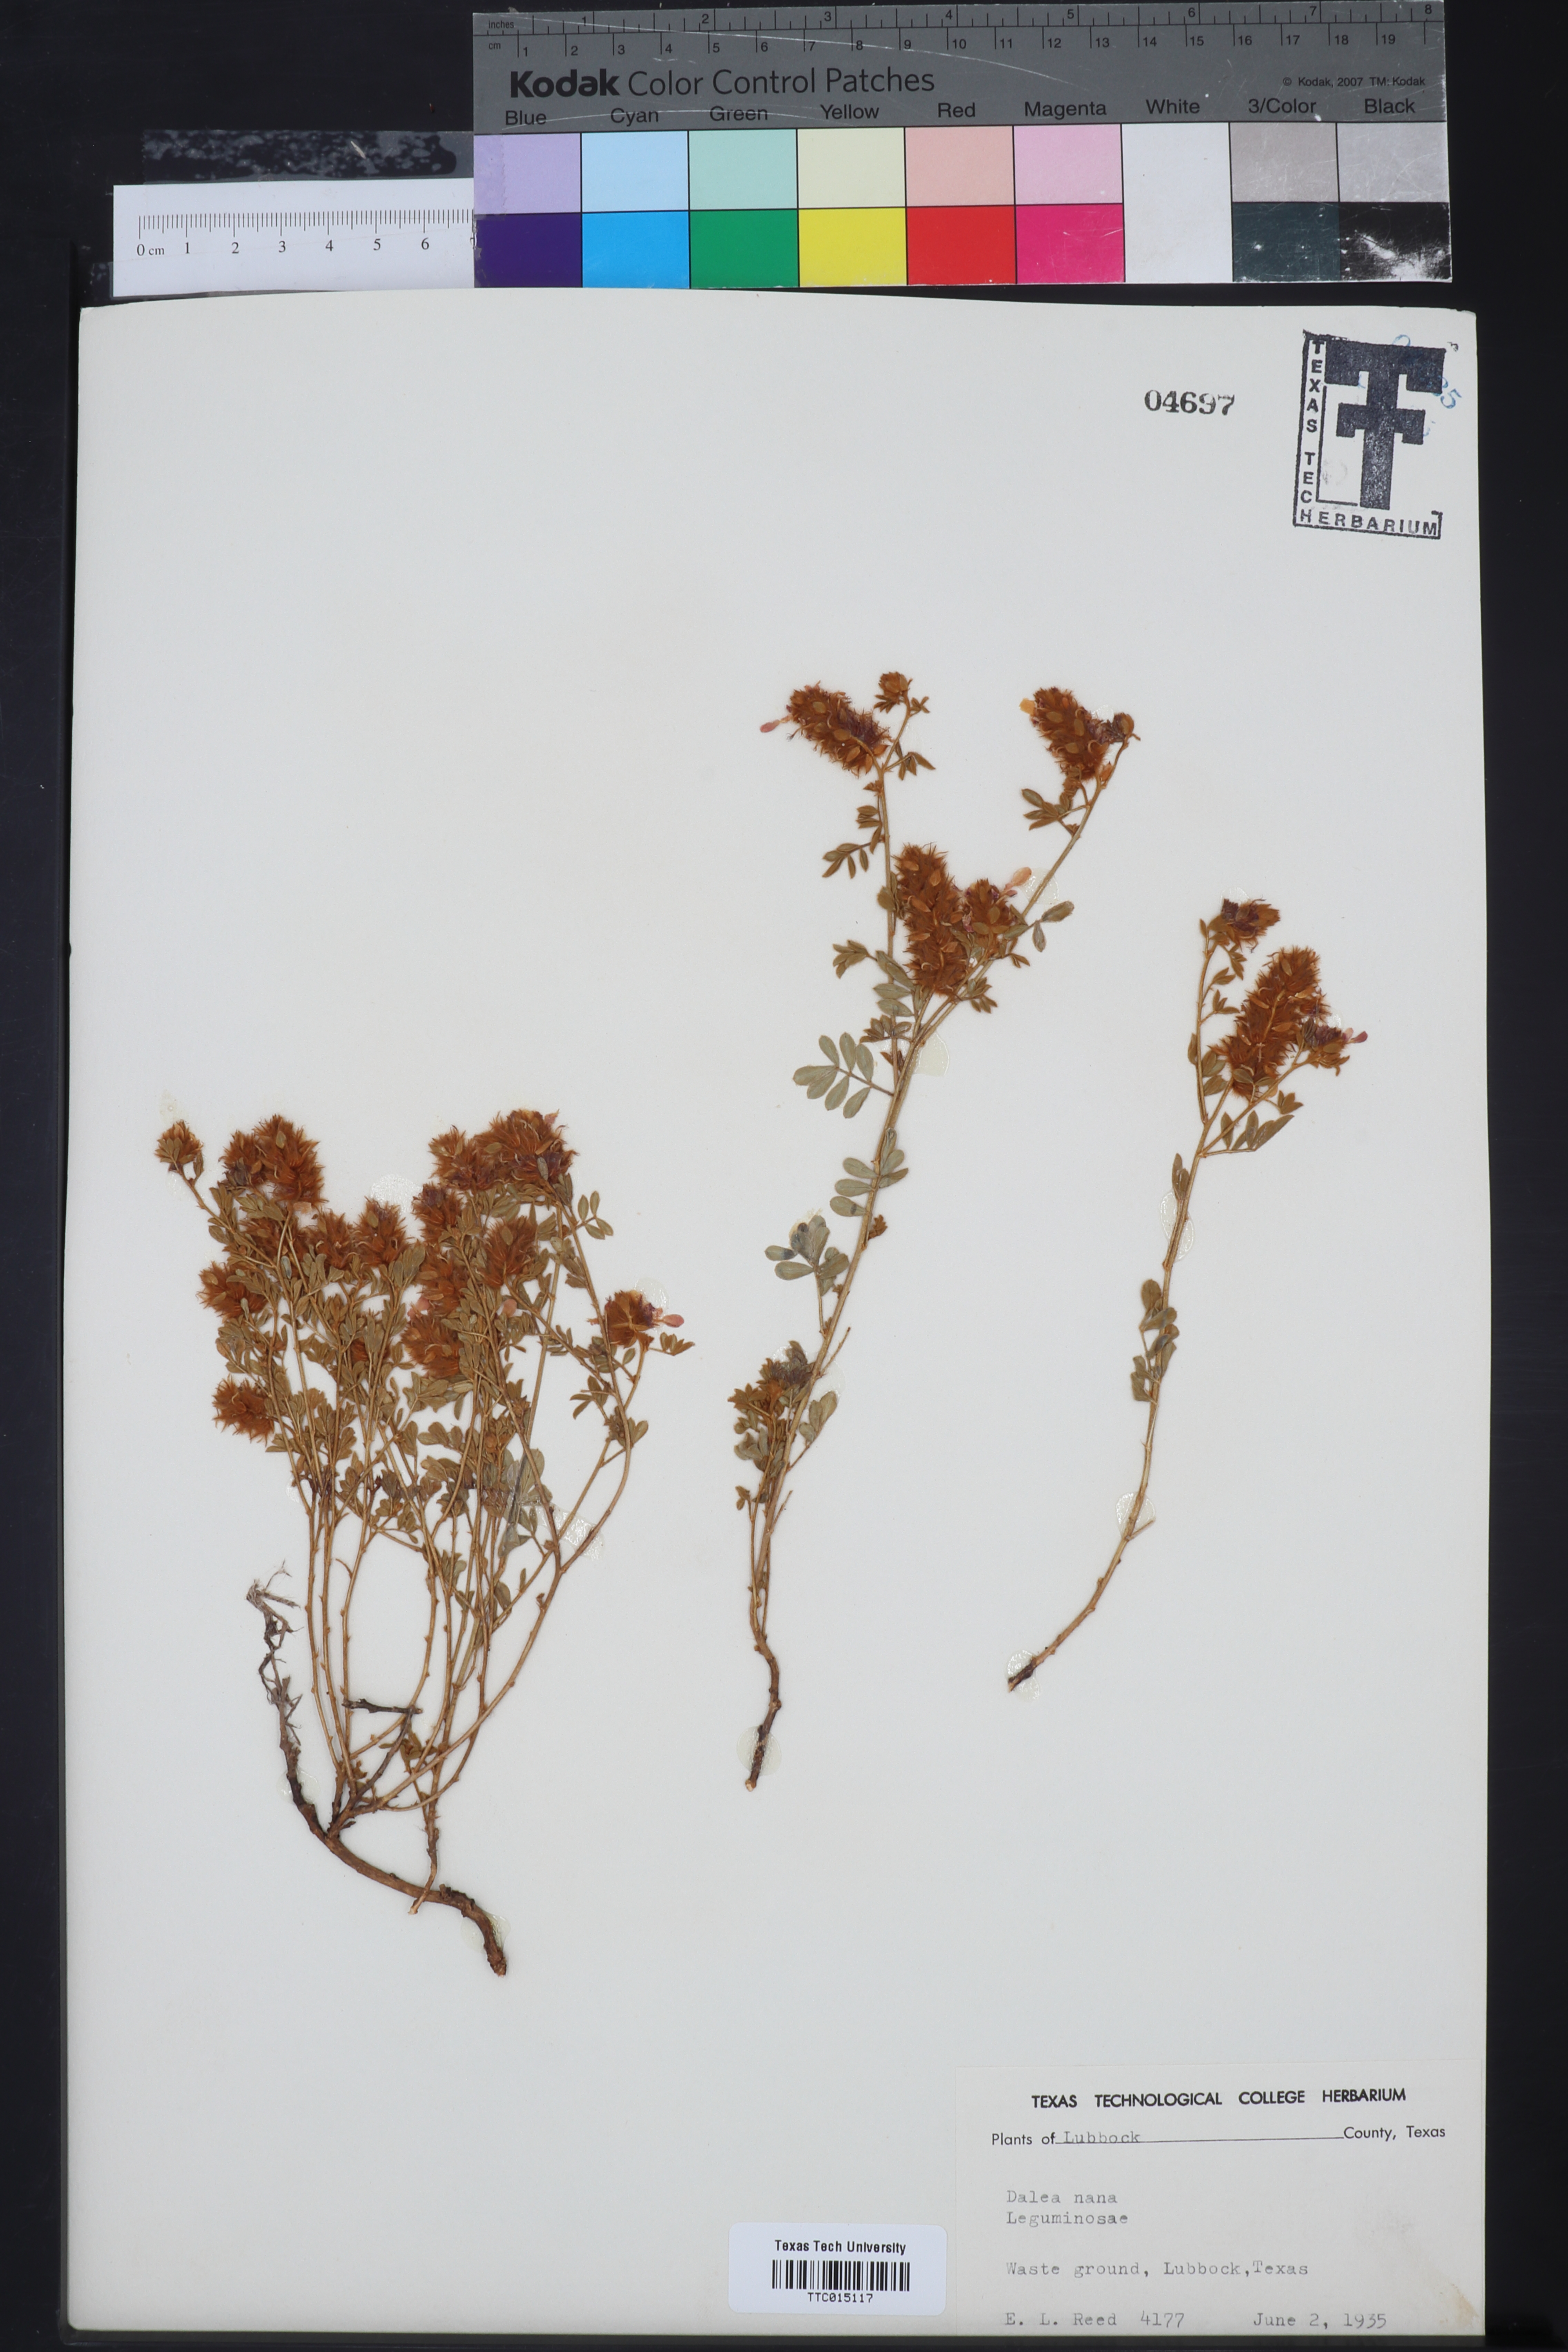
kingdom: Plantae
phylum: Tracheophyta
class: Magnoliopsida
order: Fabales
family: Fabaceae
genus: Dalea
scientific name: Dalea nana
